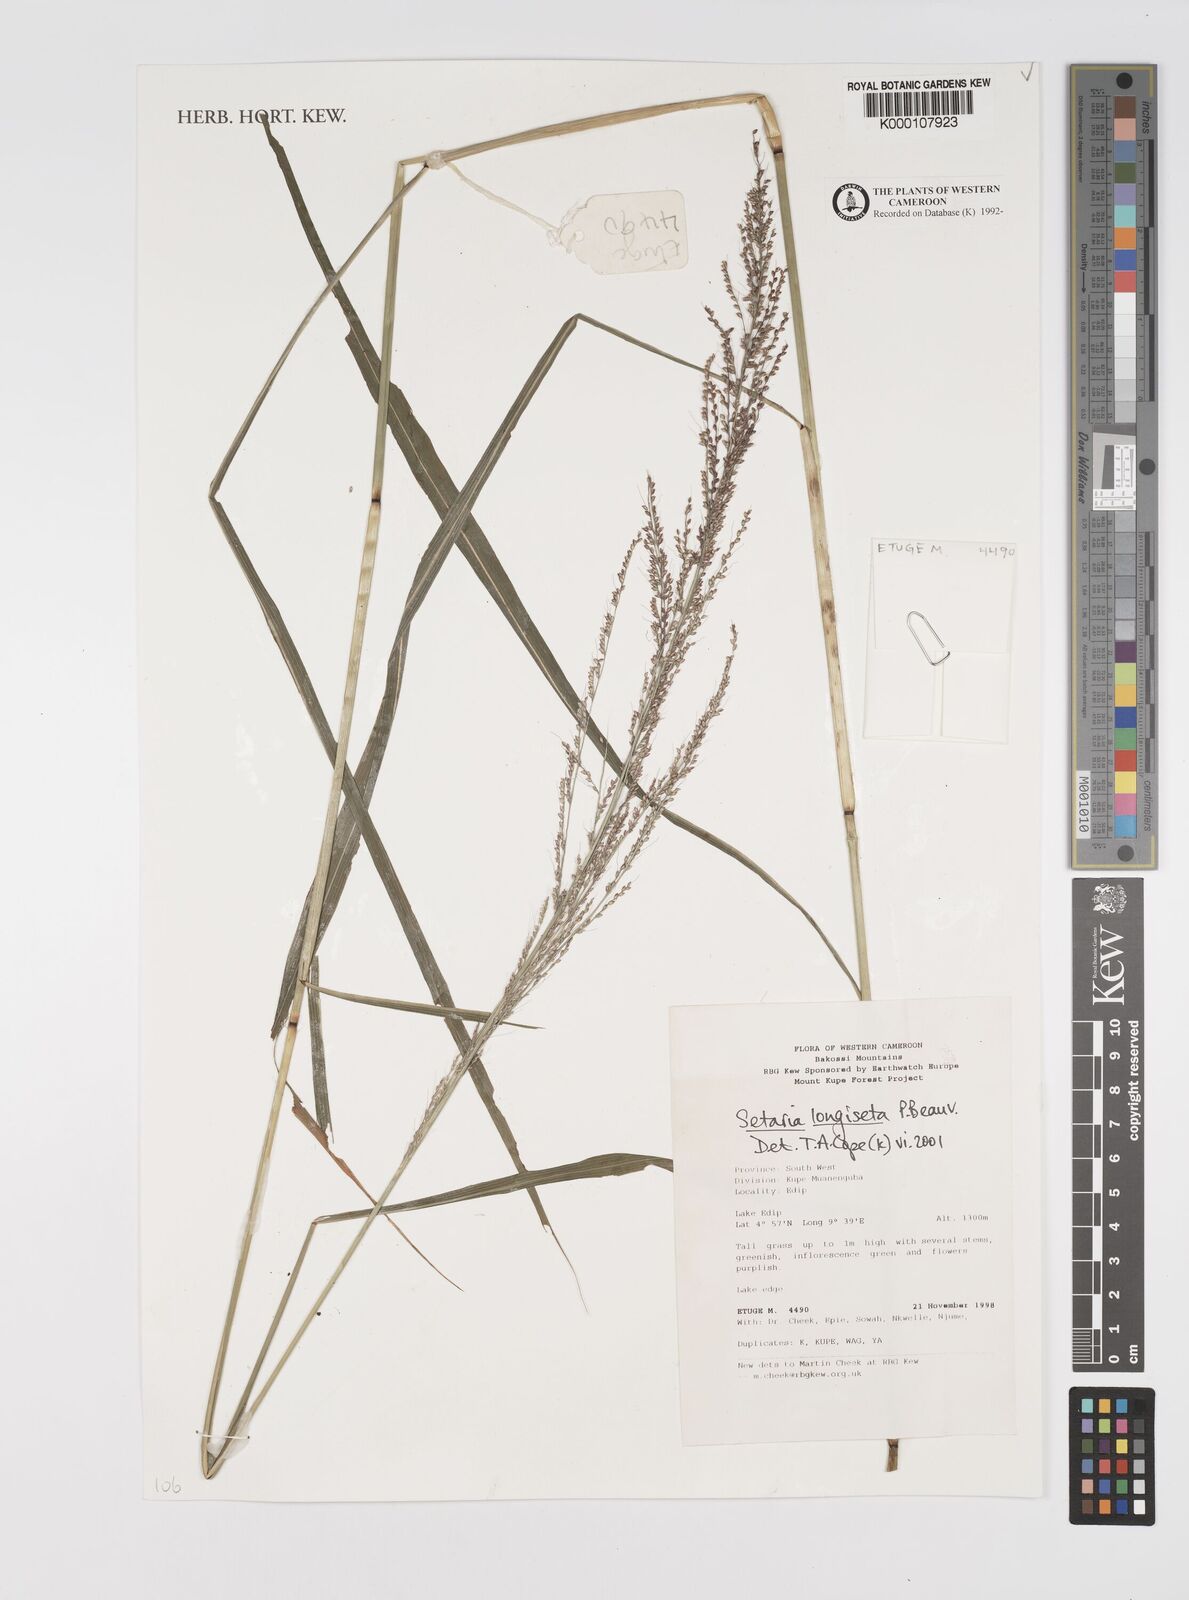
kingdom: Plantae
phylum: Tracheophyta
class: Liliopsida
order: Poales
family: Poaceae
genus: Setaria
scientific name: Setaria longiseta
